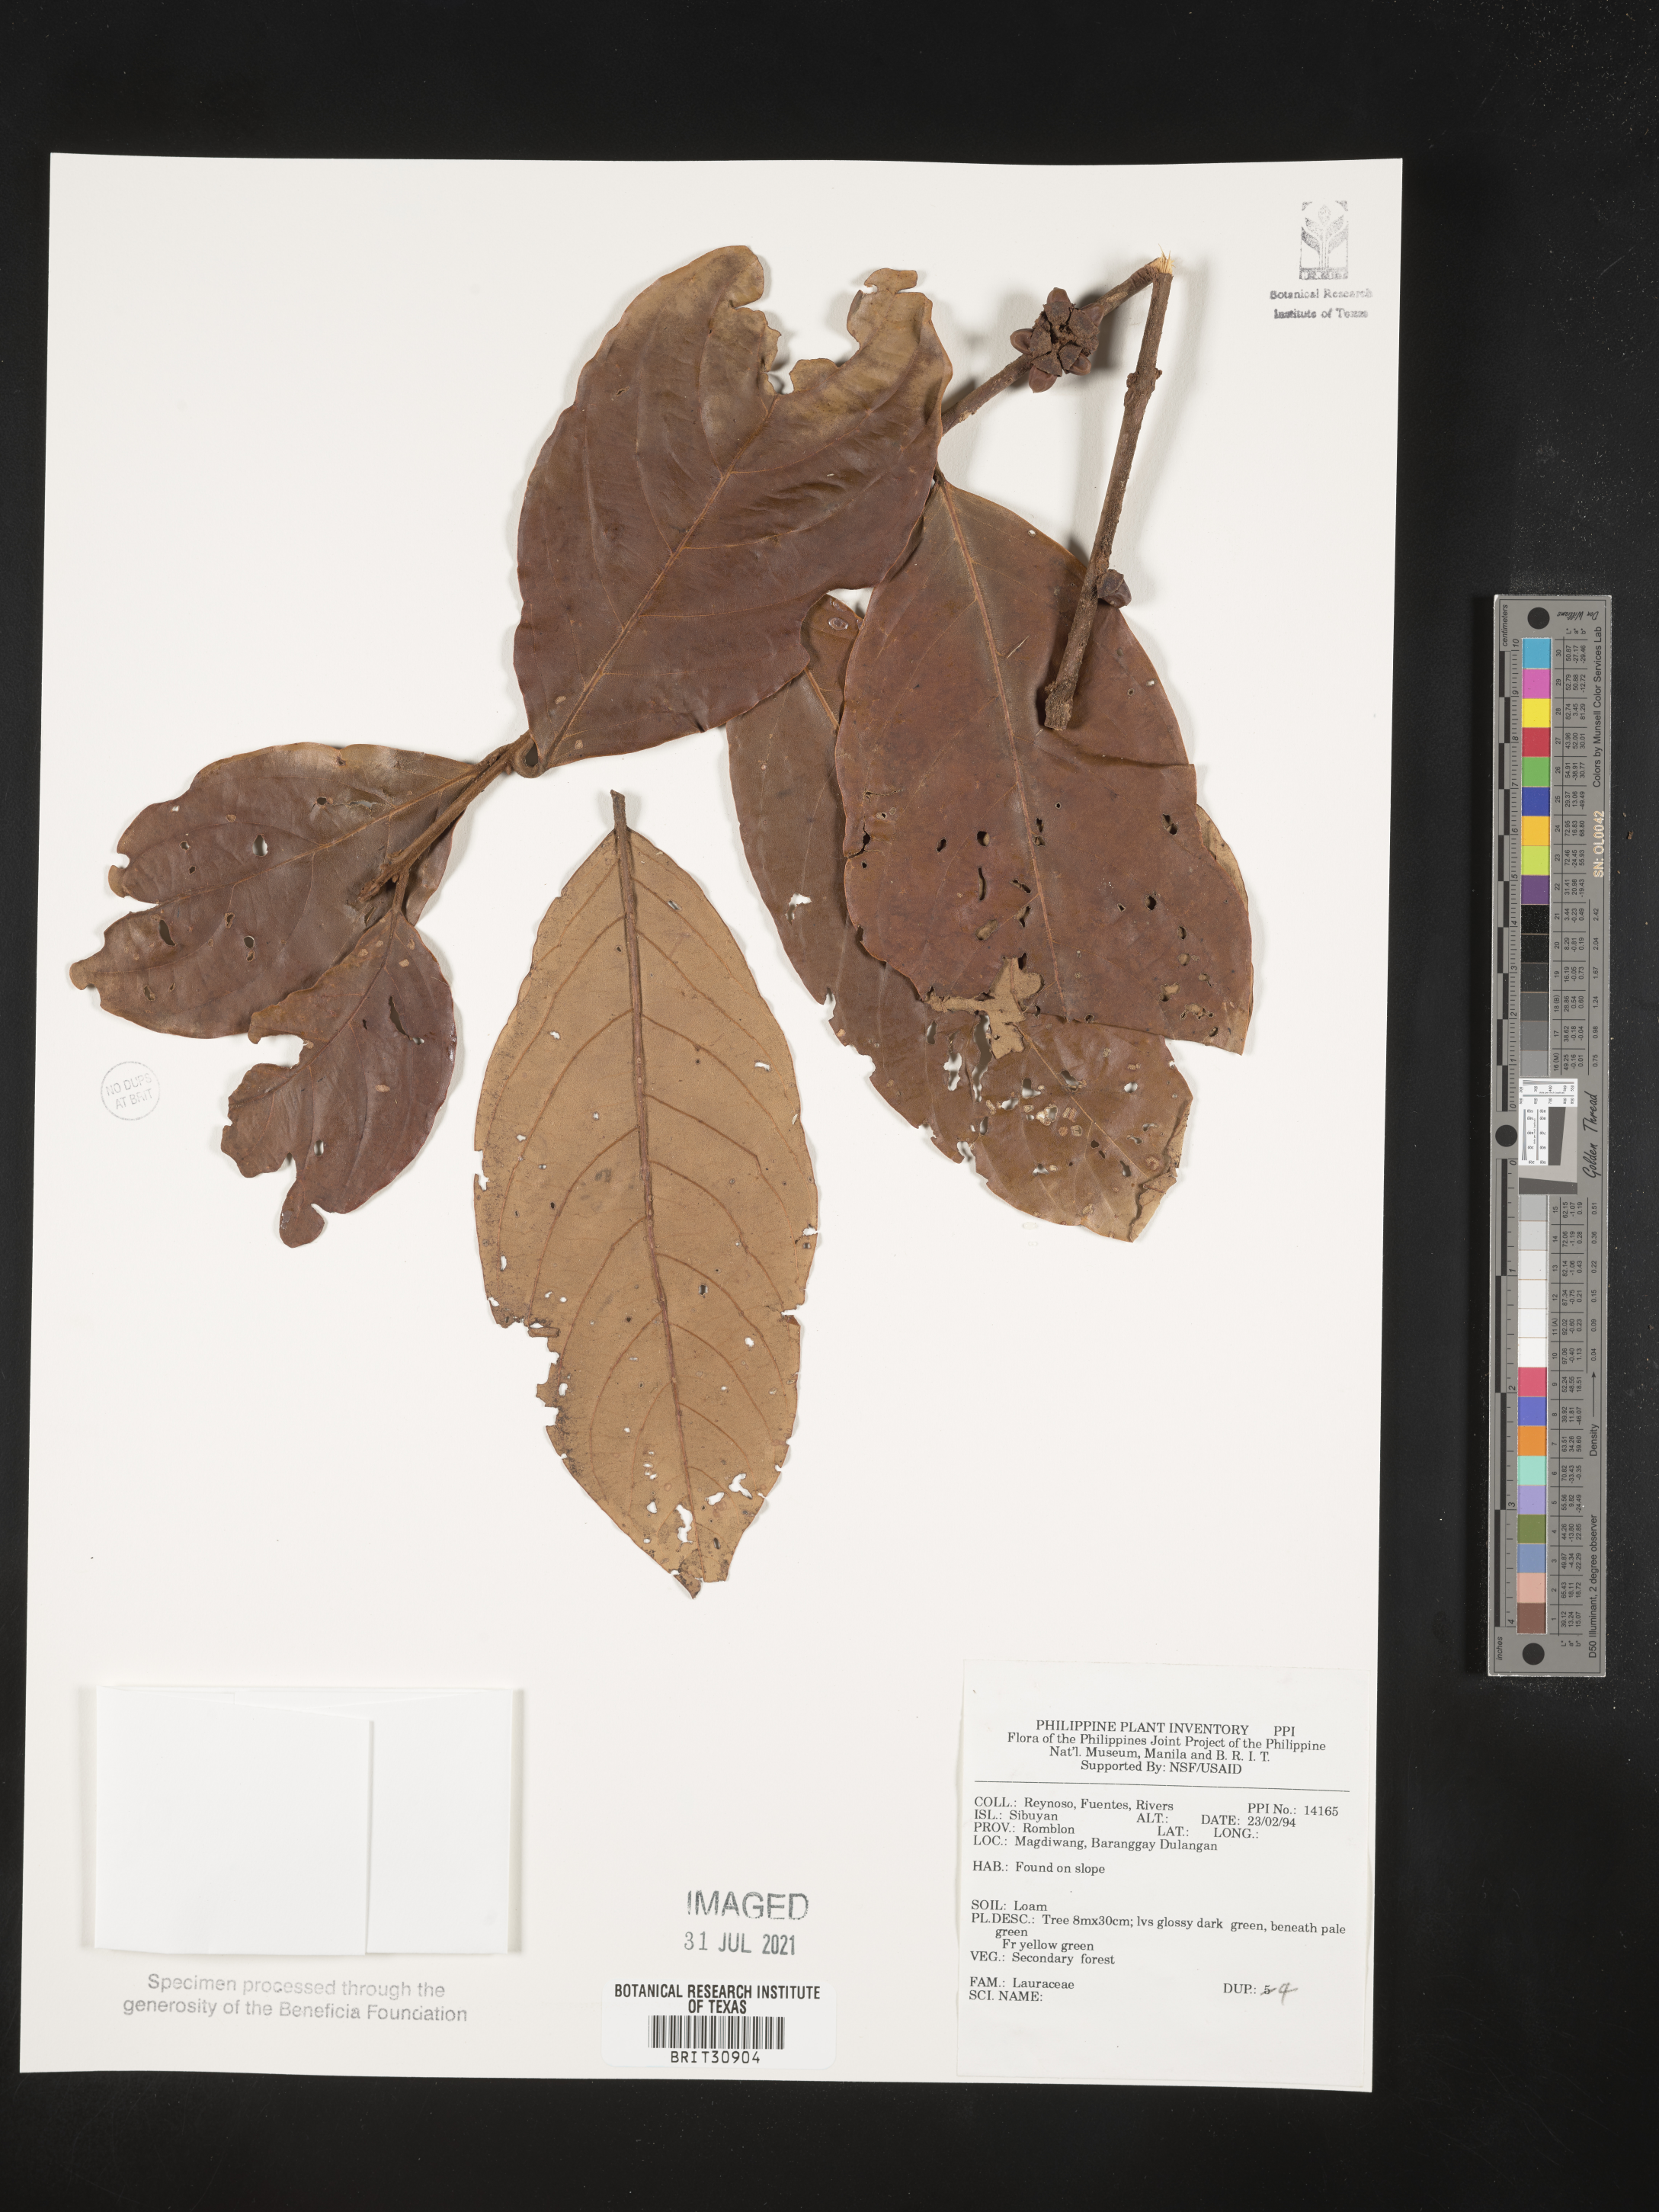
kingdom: Plantae
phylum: Tracheophyta
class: Magnoliopsida
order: Laurales
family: Lauraceae
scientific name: Lauraceae
